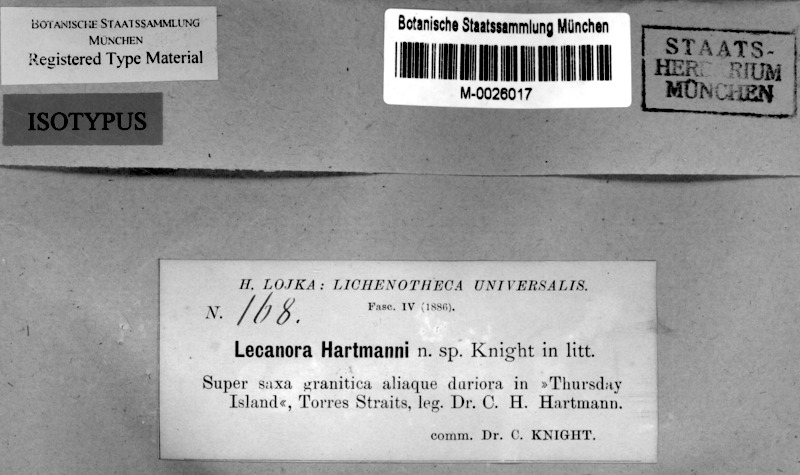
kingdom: Fungi
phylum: Ascomycota
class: Lecanoromycetes
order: Lecanorales
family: Lecanoraceae
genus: Lecanora
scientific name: Lecanora hartmannii
